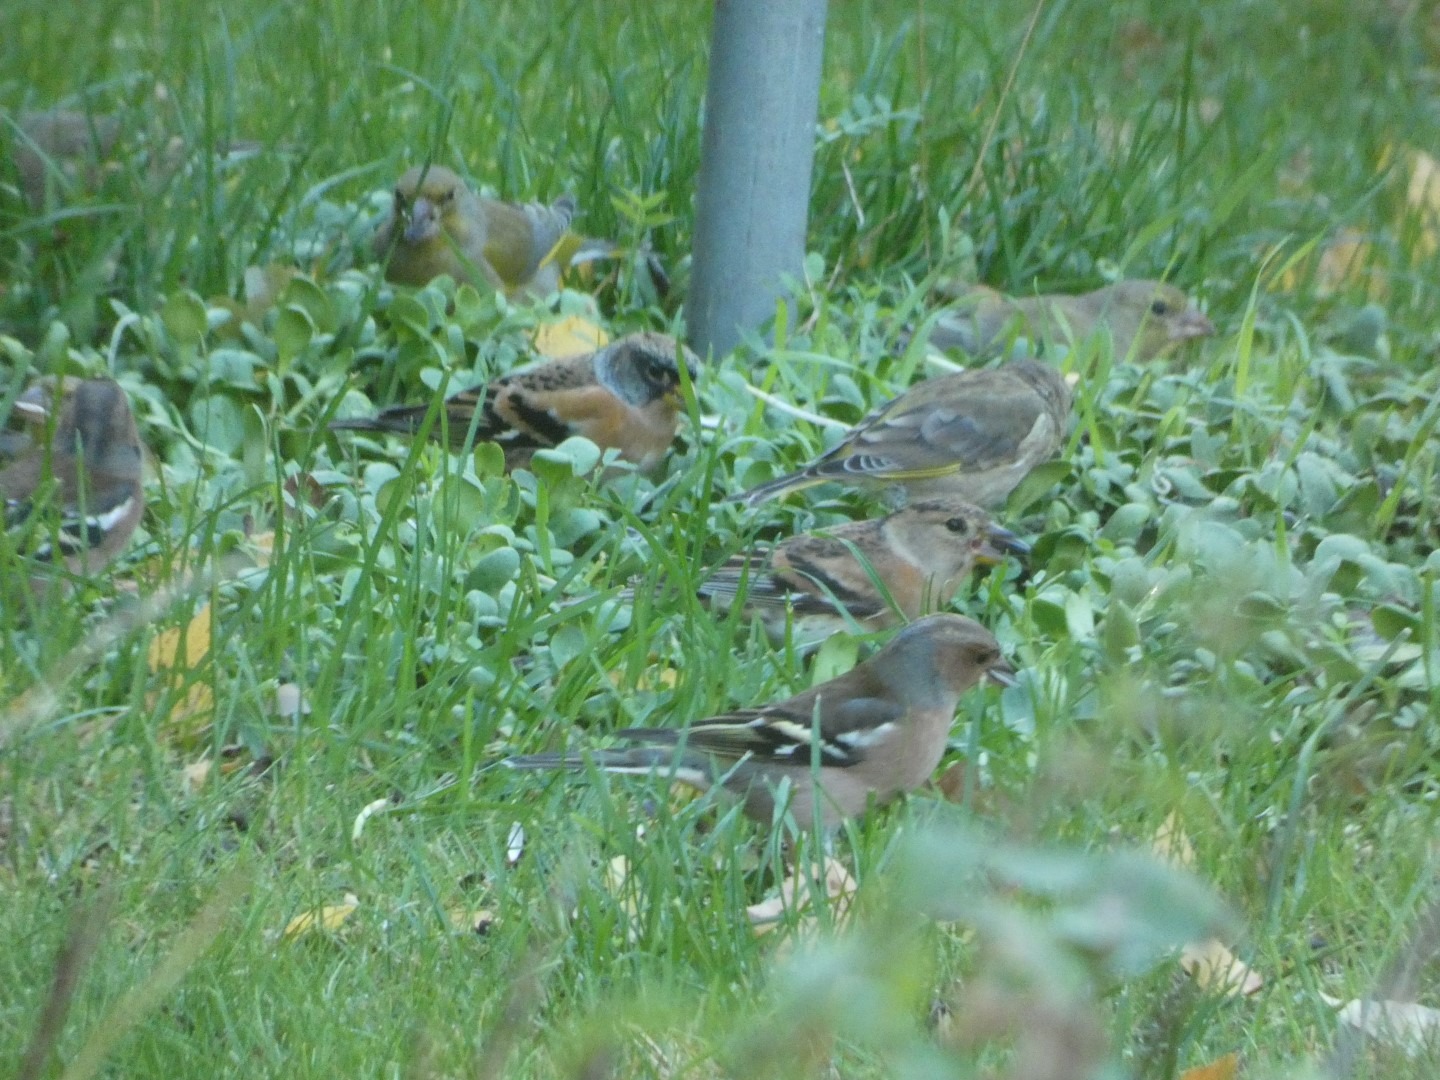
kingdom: Plantae
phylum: Tracheophyta
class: Liliopsida
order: Poales
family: Poaceae
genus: Chloris
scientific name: Chloris chloris
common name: Grønirisk
